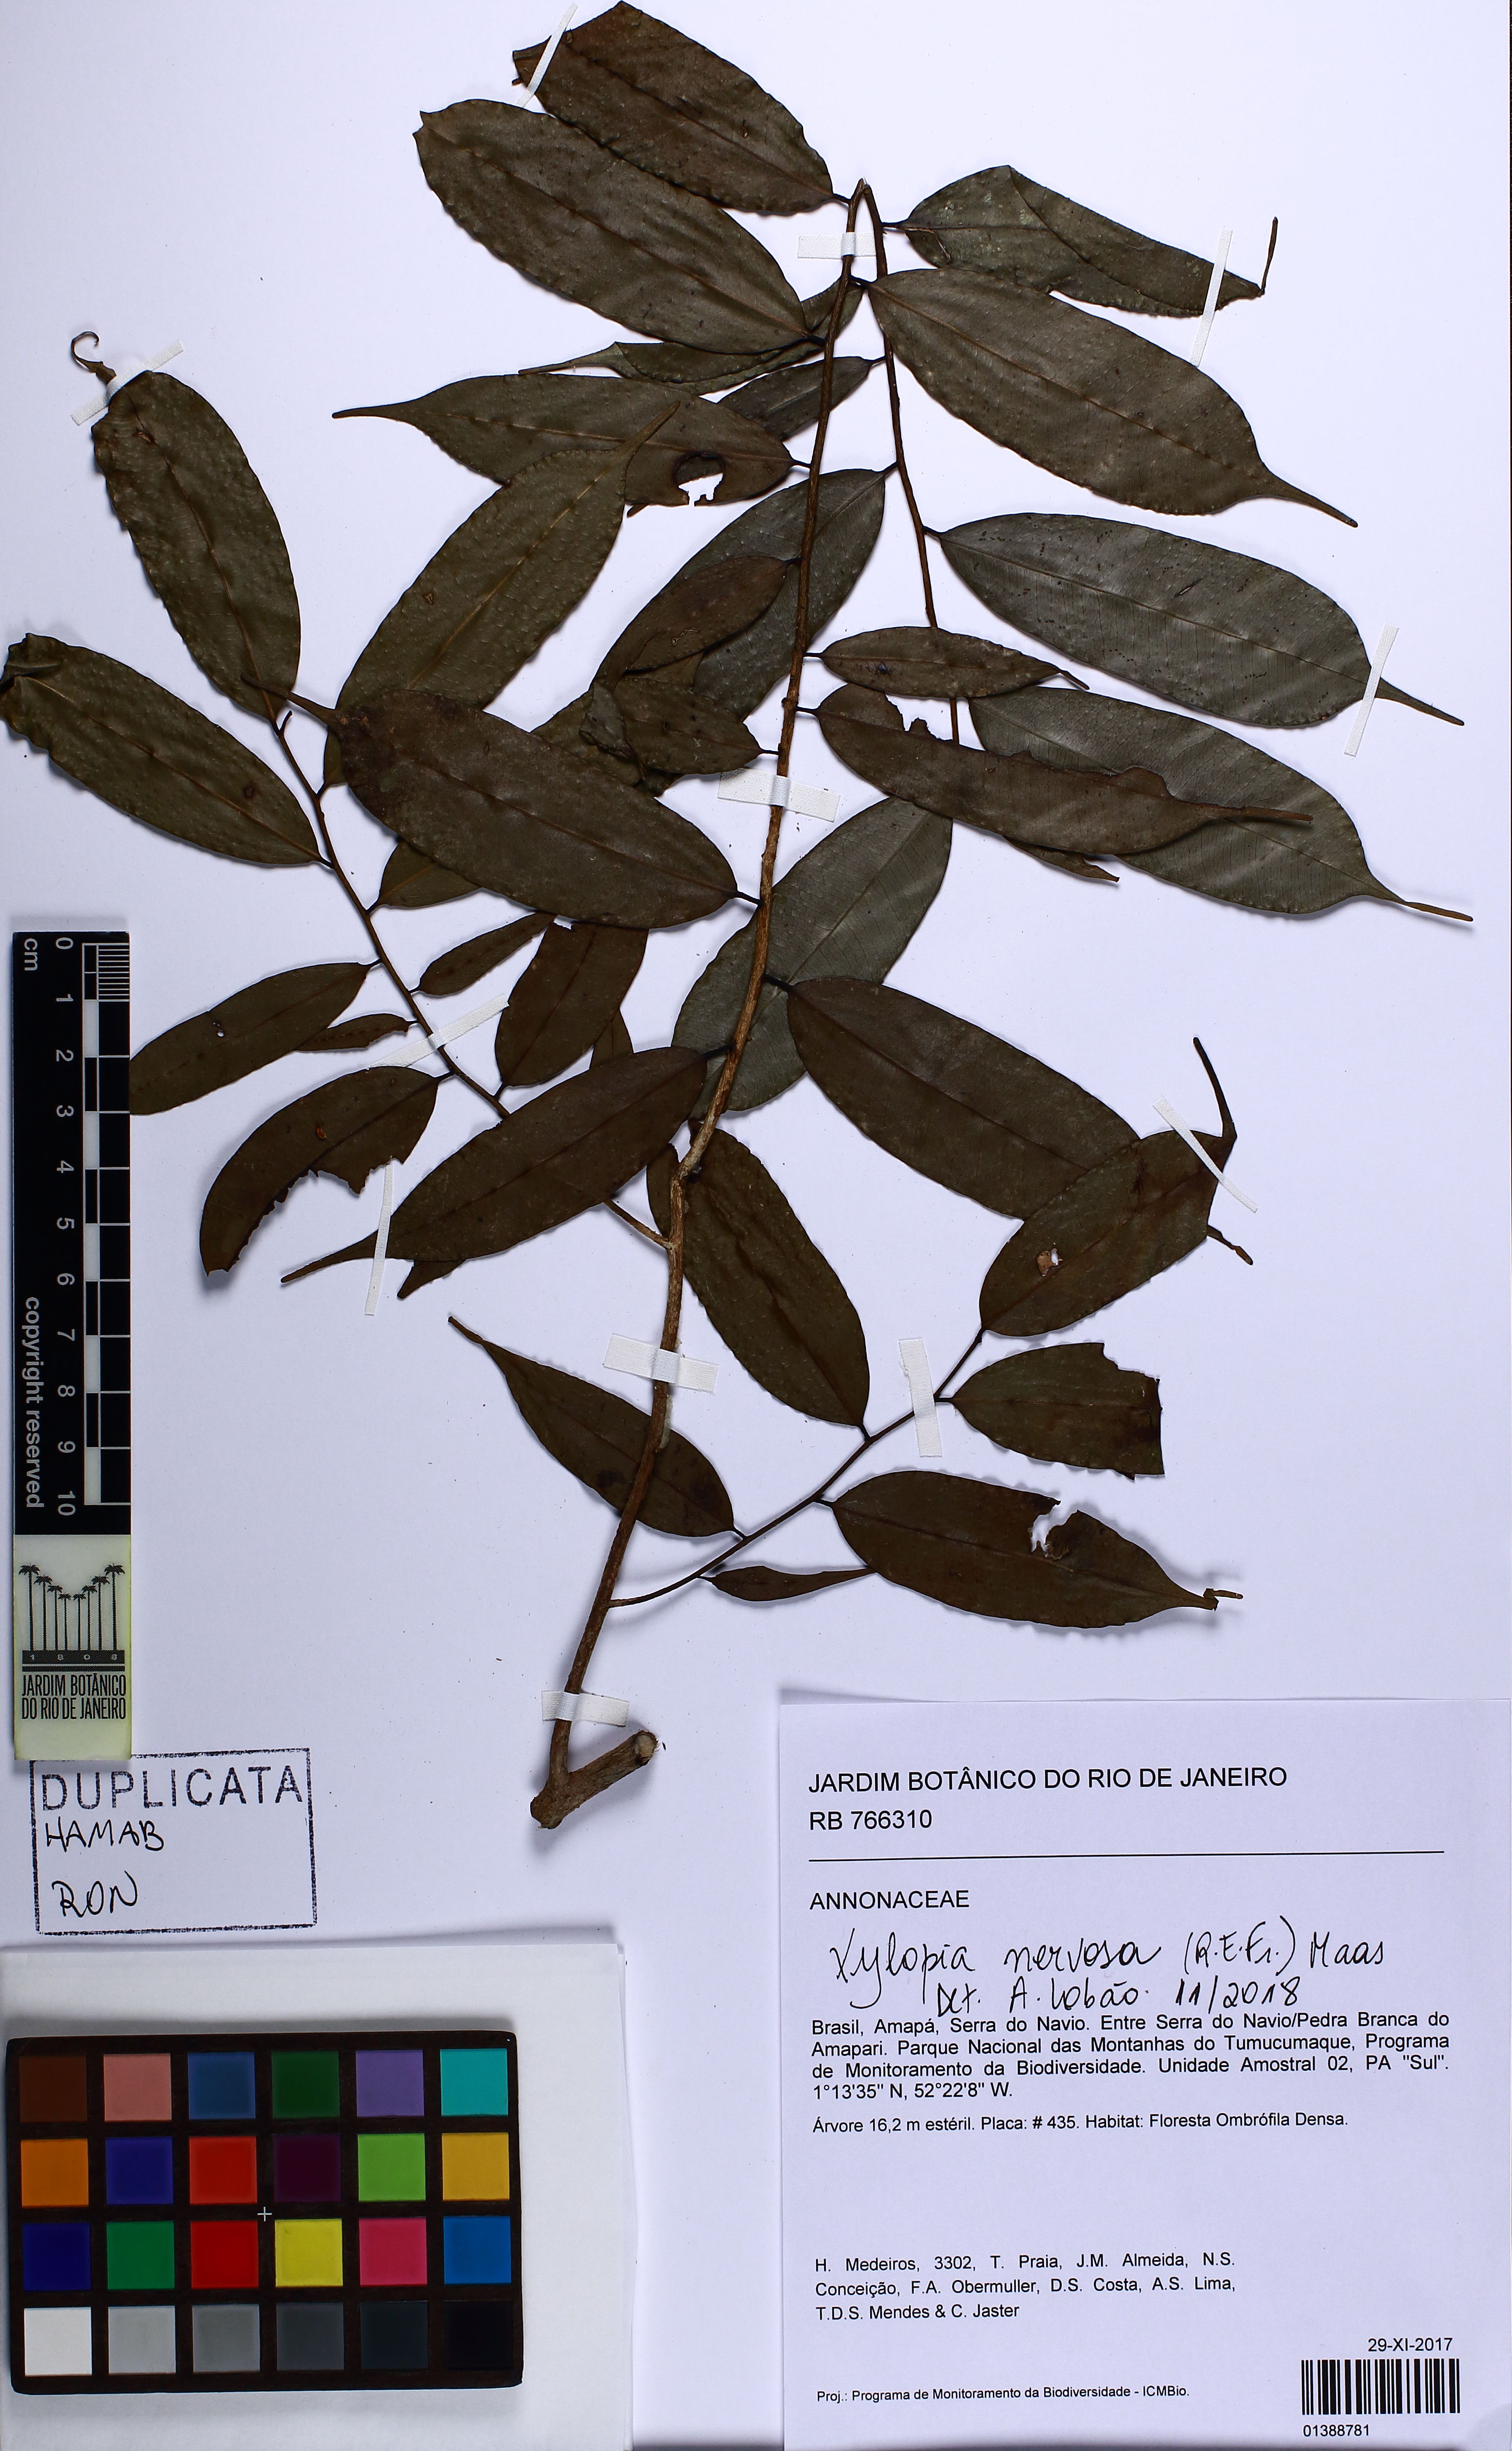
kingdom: Plantae
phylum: Tracheophyta
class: Magnoliopsida
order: Magnoliales
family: Annonaceae
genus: Xylopia
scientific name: Xylopia nervosa
